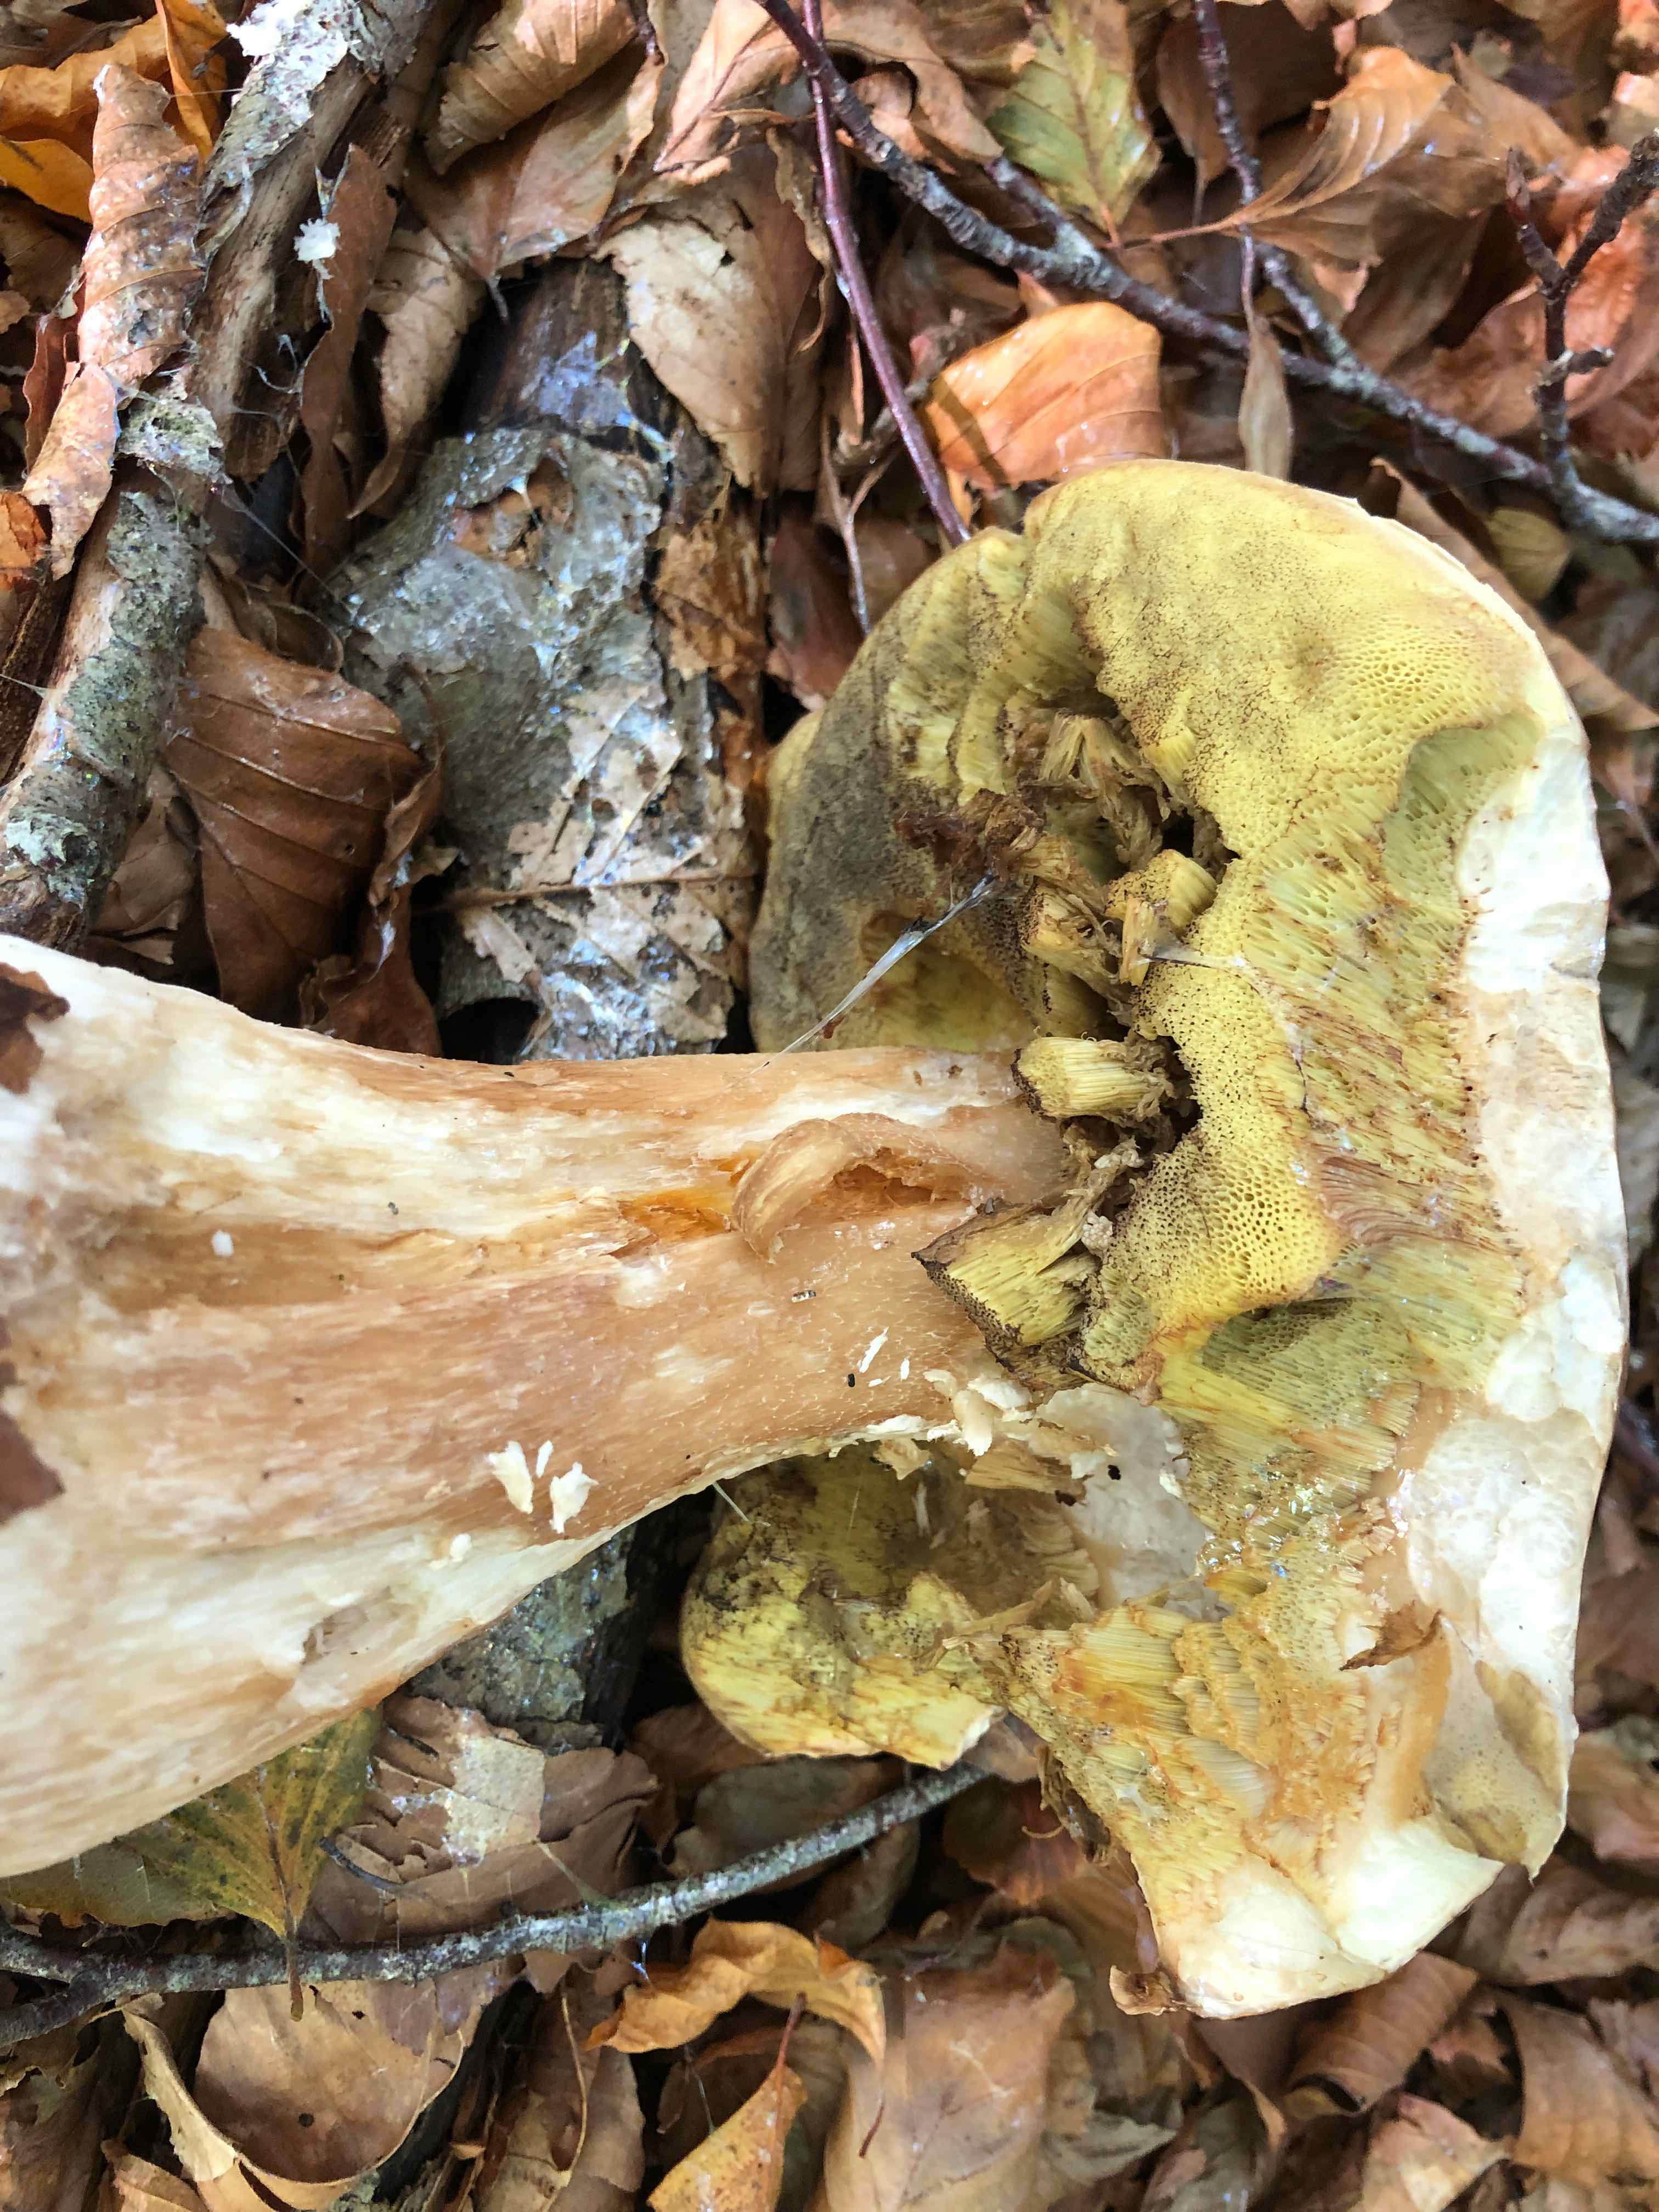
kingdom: Fungi
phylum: Basidiomycota
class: Agaricomycetes
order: Boletales
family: Boletaceae
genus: Boletus
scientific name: Boletus edulis
